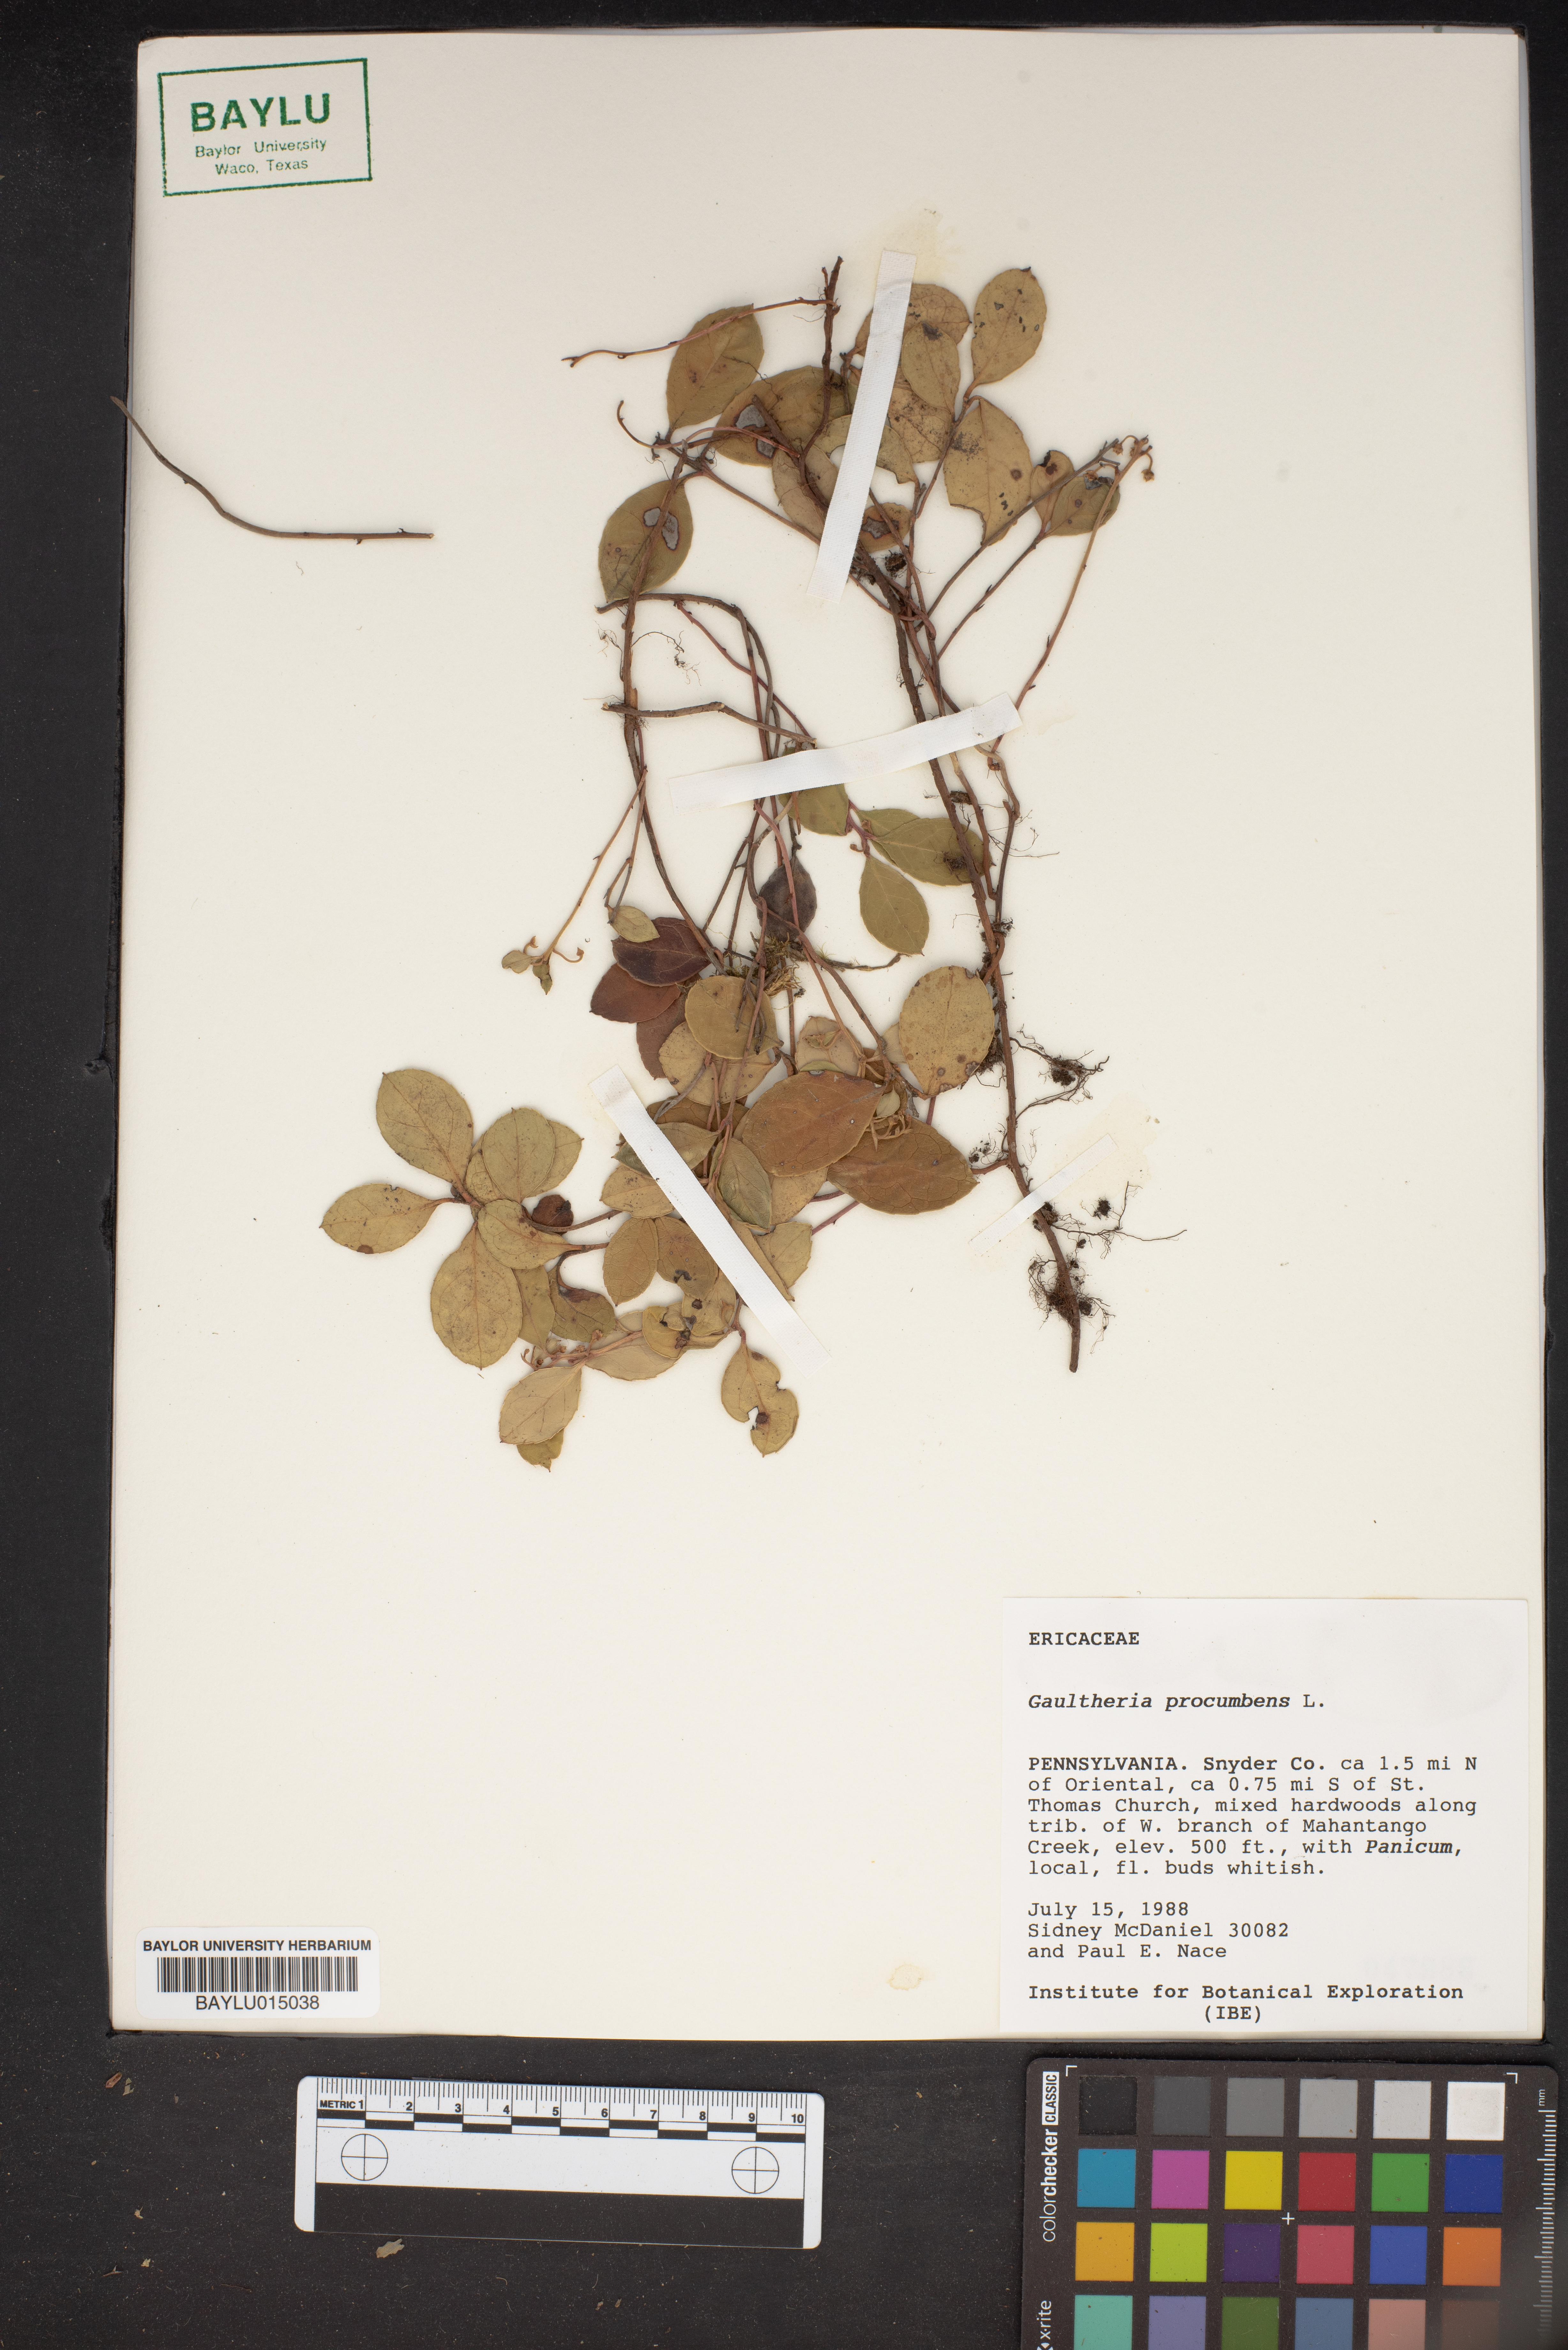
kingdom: Plantae
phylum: Tracheophyta
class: Magnoliopsida
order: Ericales
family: Ericaceae
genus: Gaultheria
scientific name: Gaultheria procumbens
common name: Checkerberry
